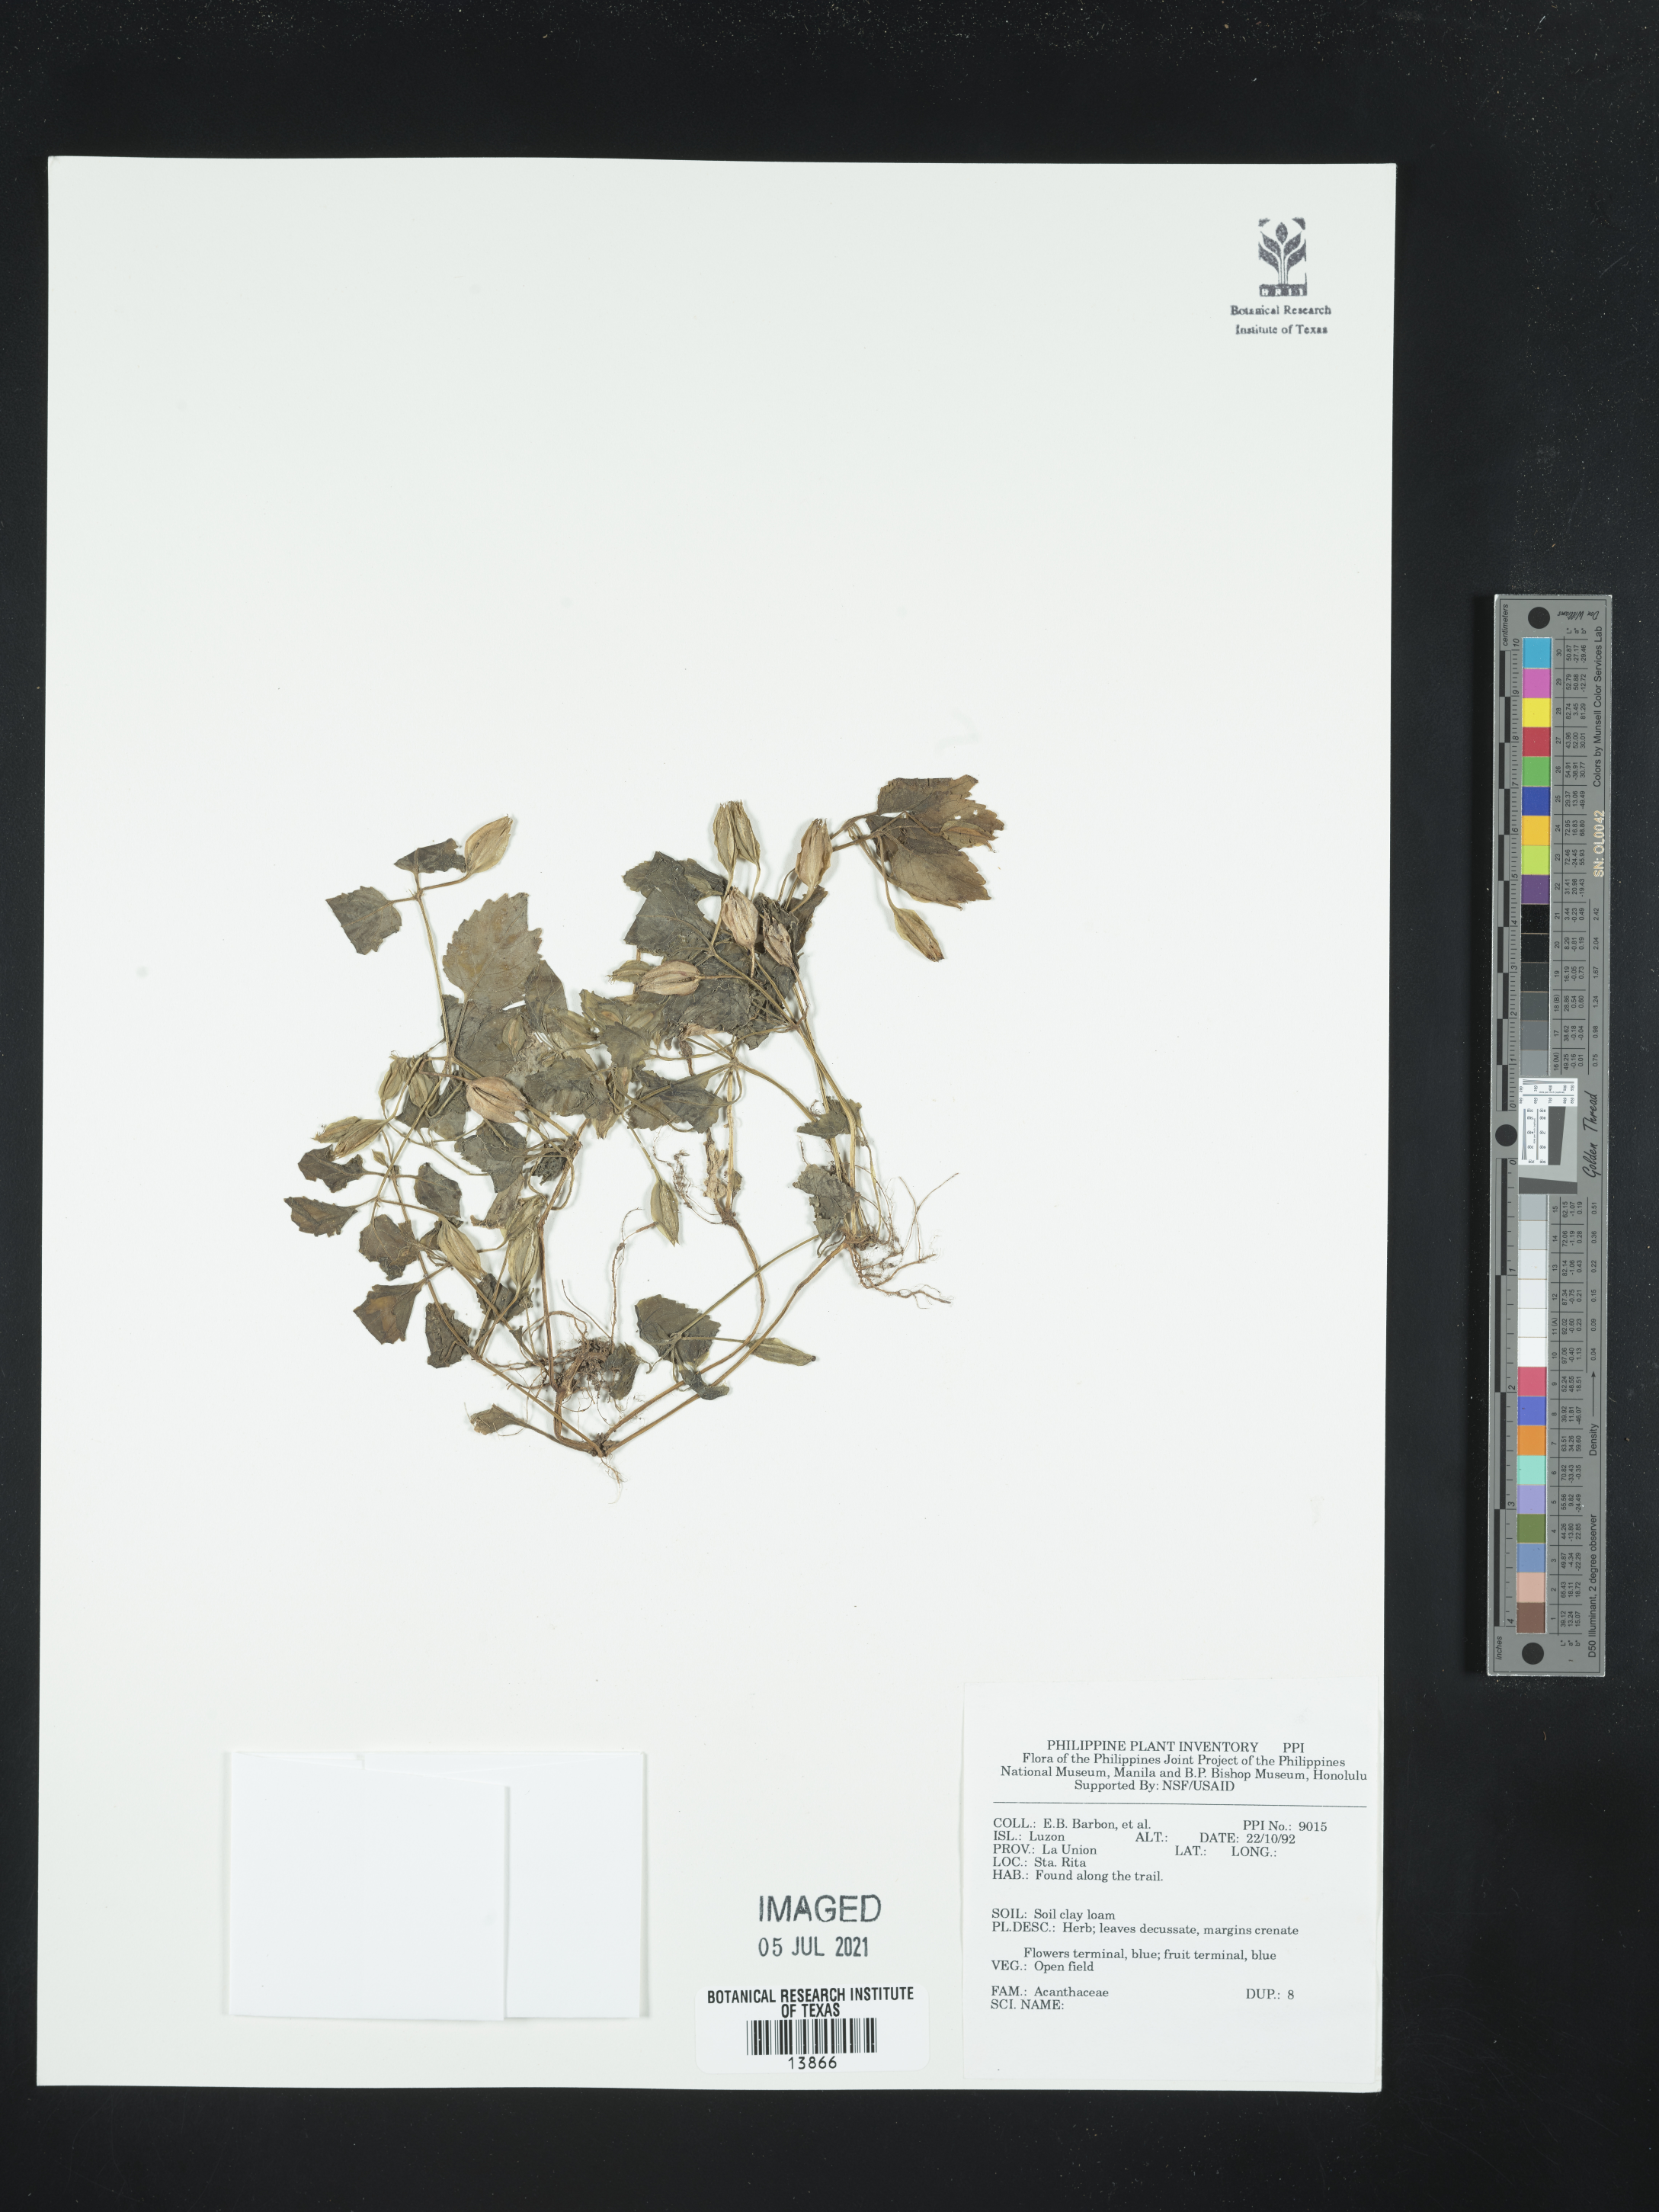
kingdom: Plantae
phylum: Tracheophyta
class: Magnoliopsida
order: Lamiales
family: Acanthaceae
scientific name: Acanthaceae
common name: Acanthaceae
